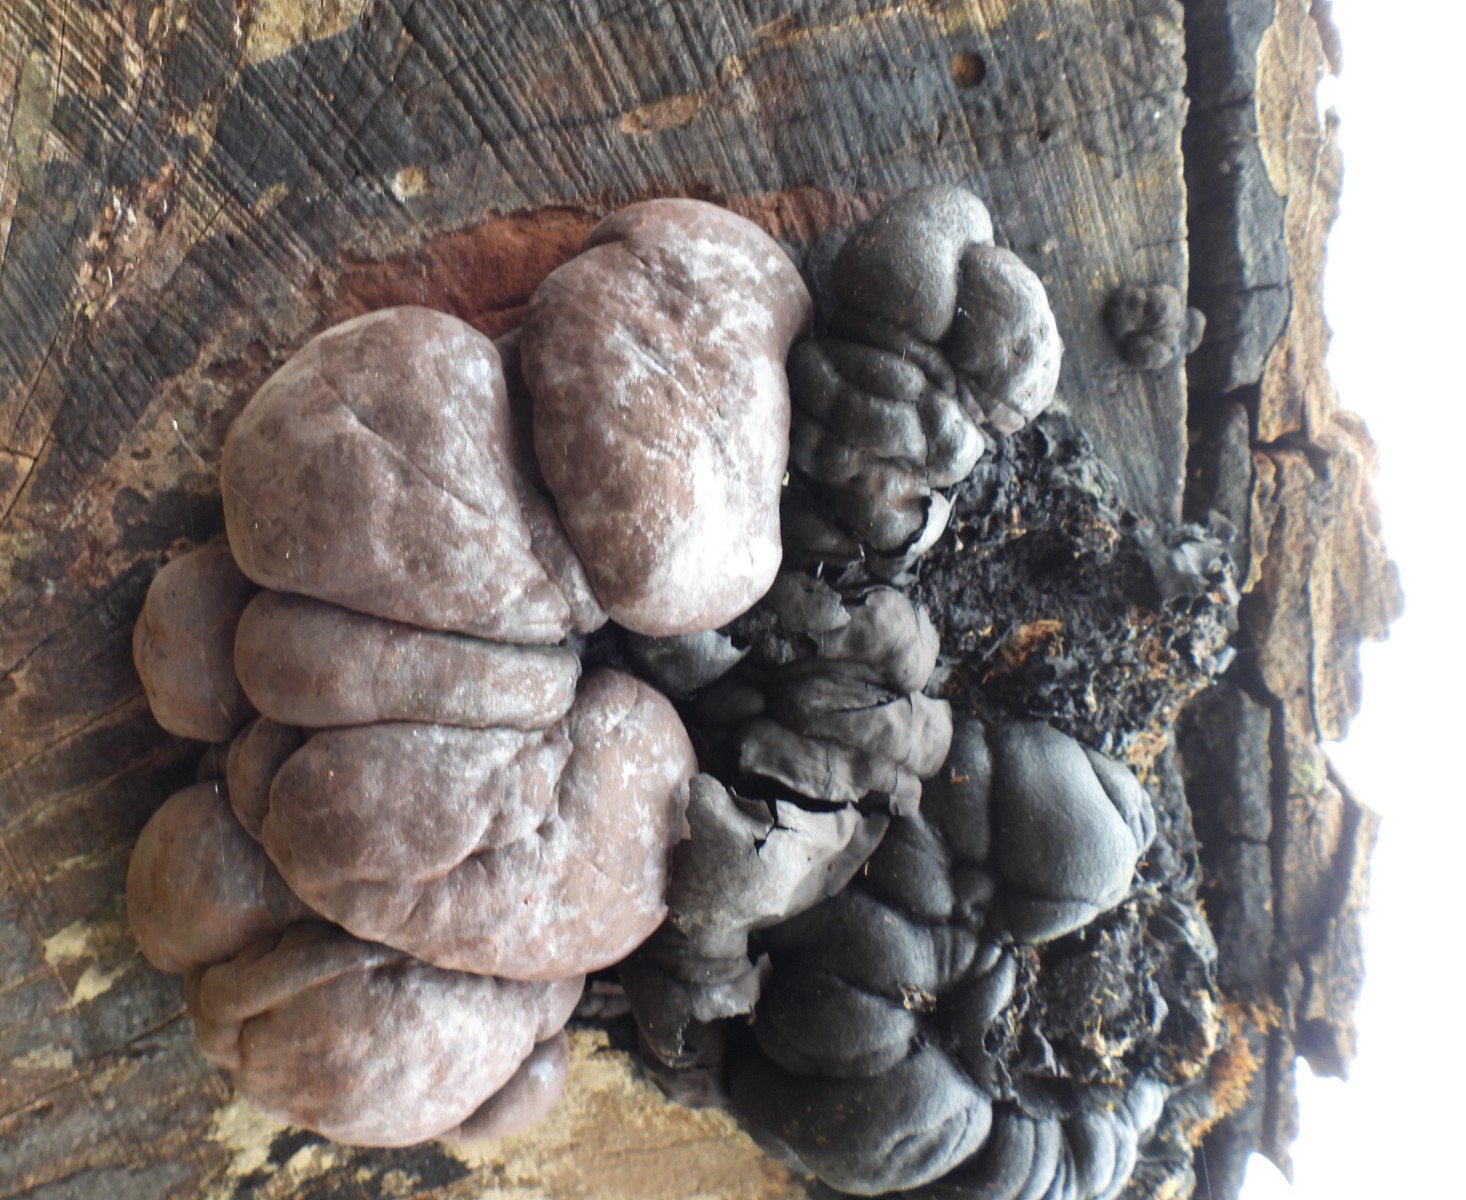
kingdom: Fungi
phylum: Ascomycota
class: Sordariomycetes
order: Xylariales
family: Hypoxylaceae
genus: Daldinia
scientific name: Daldinia pyrenaica
